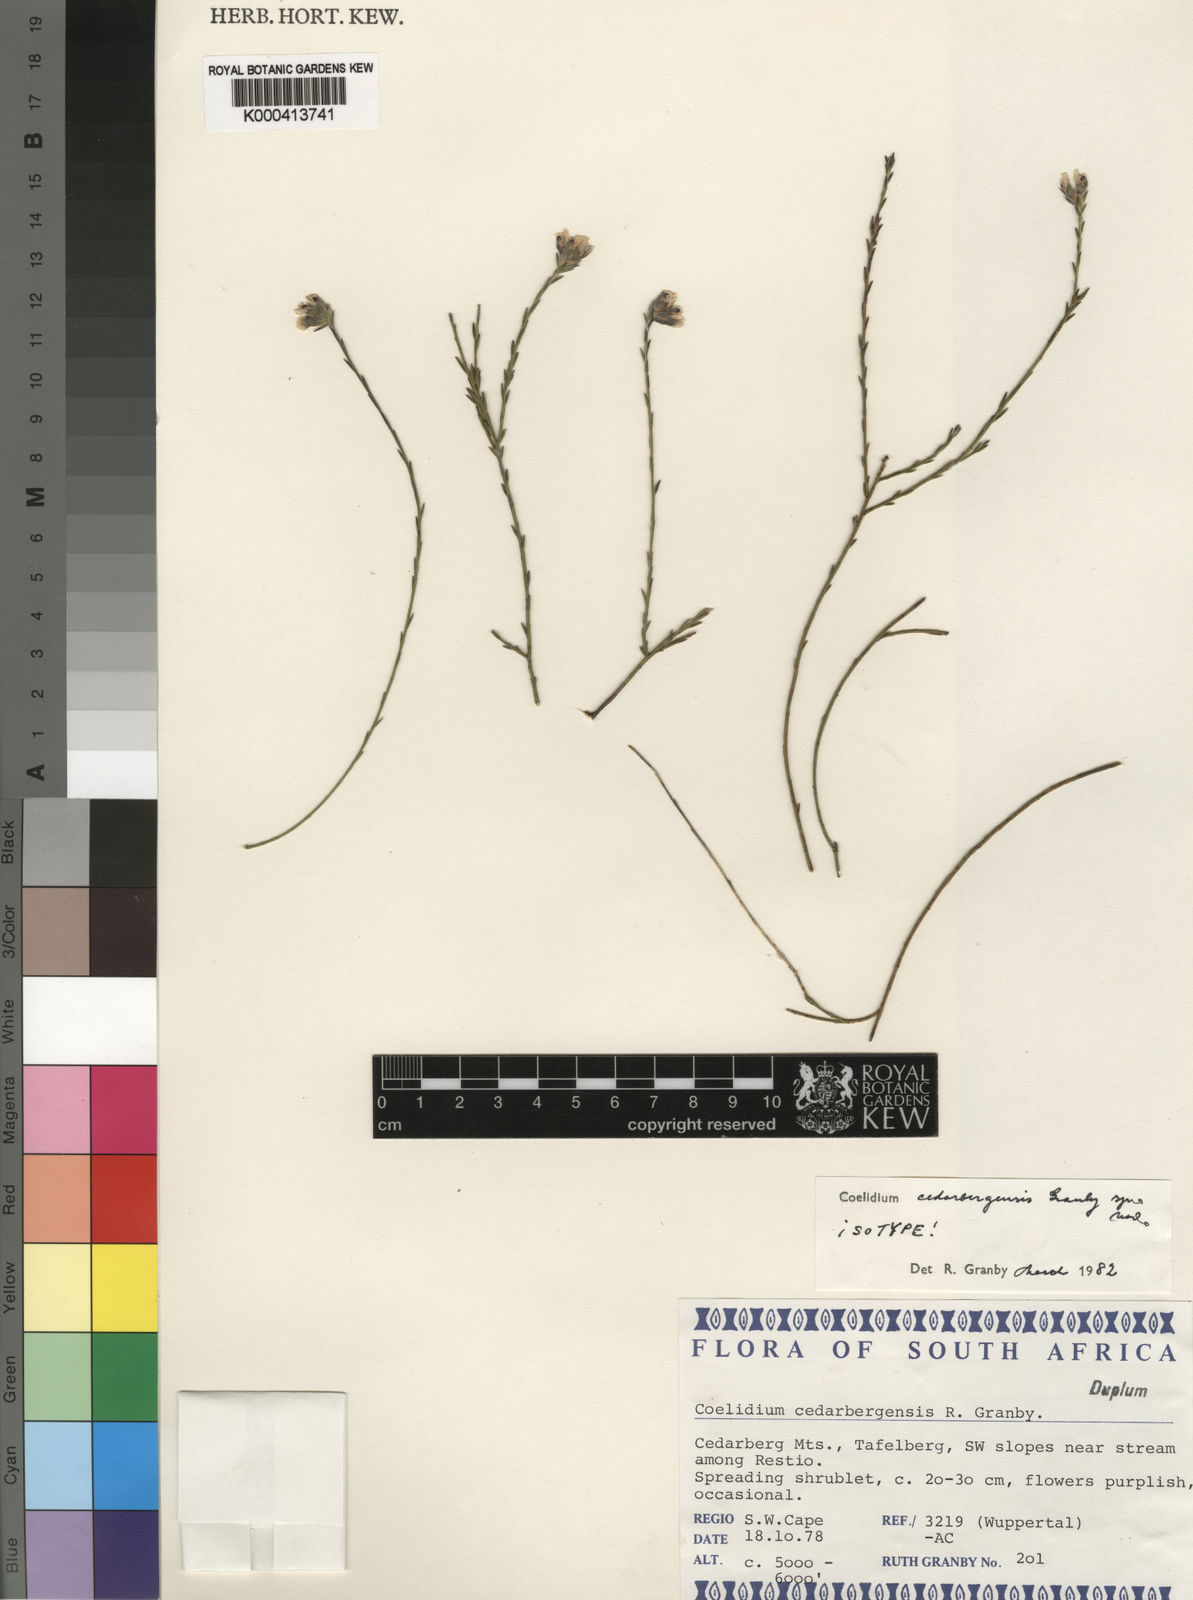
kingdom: Plantae
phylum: Tracheophyta
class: Magnoliopsida
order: Fabales
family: Fabaceae
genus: Amphithalea
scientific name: Amphithalea cedarbergensis
